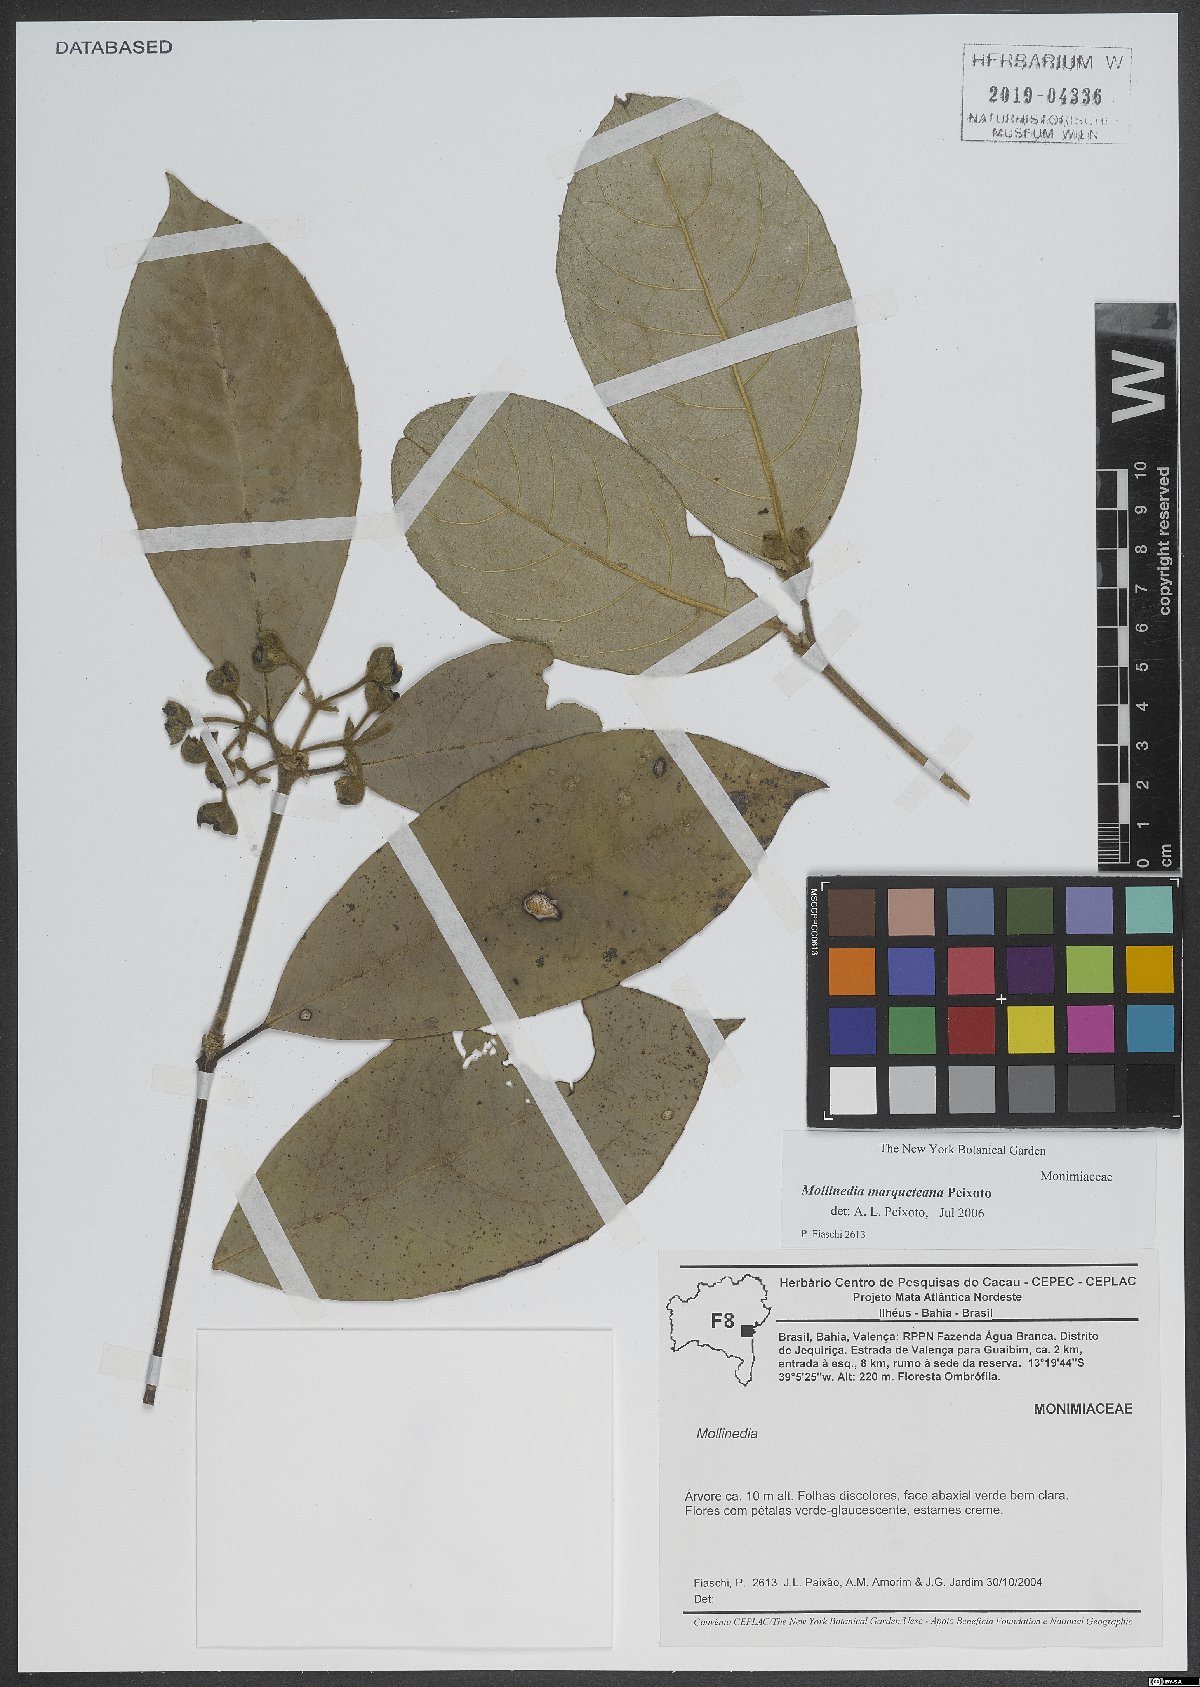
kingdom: Plantae
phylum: Tracheophyta
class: Magnoliopsida
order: Laurales
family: Monimiaceae
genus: Mollinedia
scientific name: Mollinedia marqueteana
